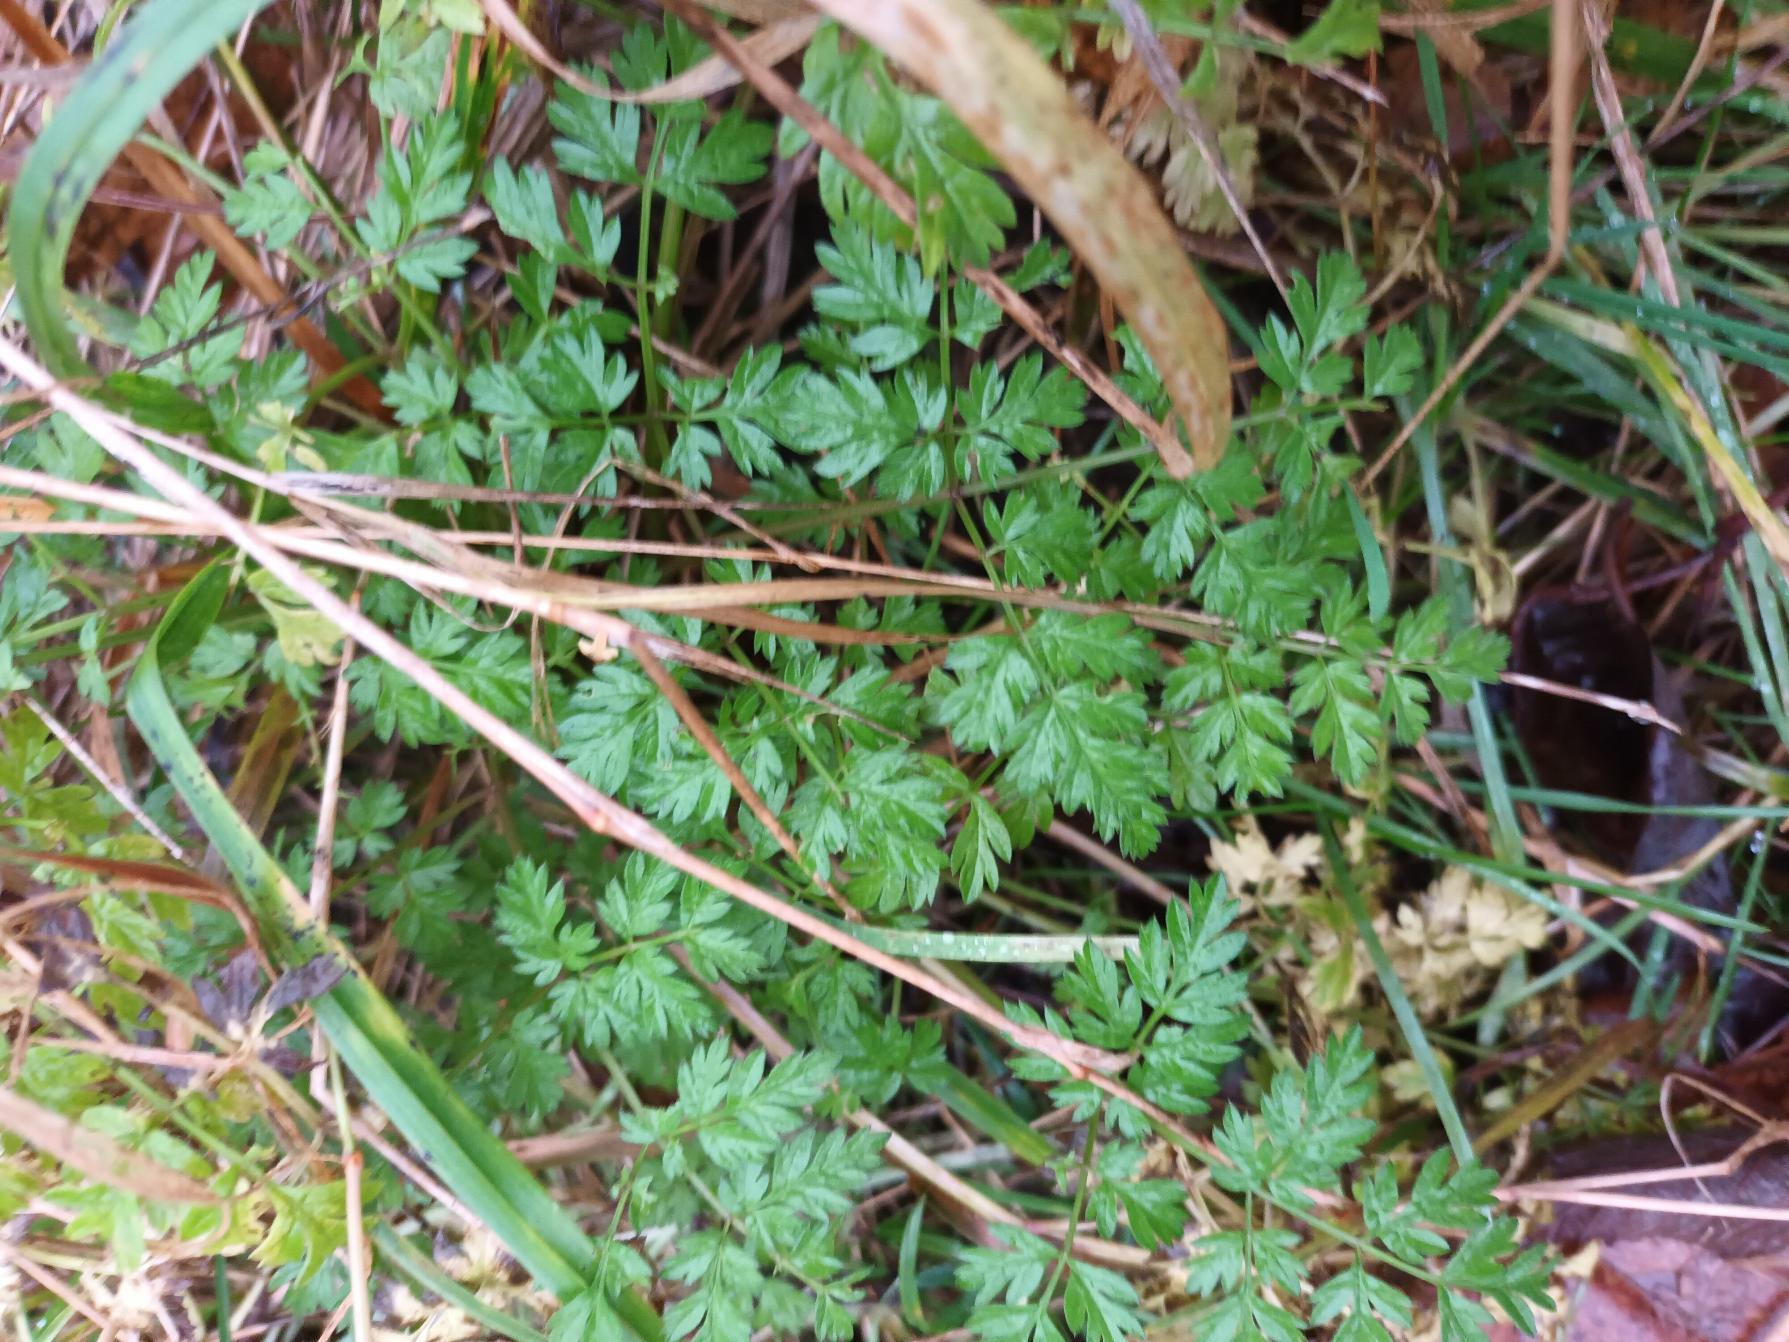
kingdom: Plantae
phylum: Tracheophyta
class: Magnoliopsida
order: Apiales
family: Apiaceae
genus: Anthriscus
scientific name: Anthriscus sylvestris
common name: Vild kørvel
